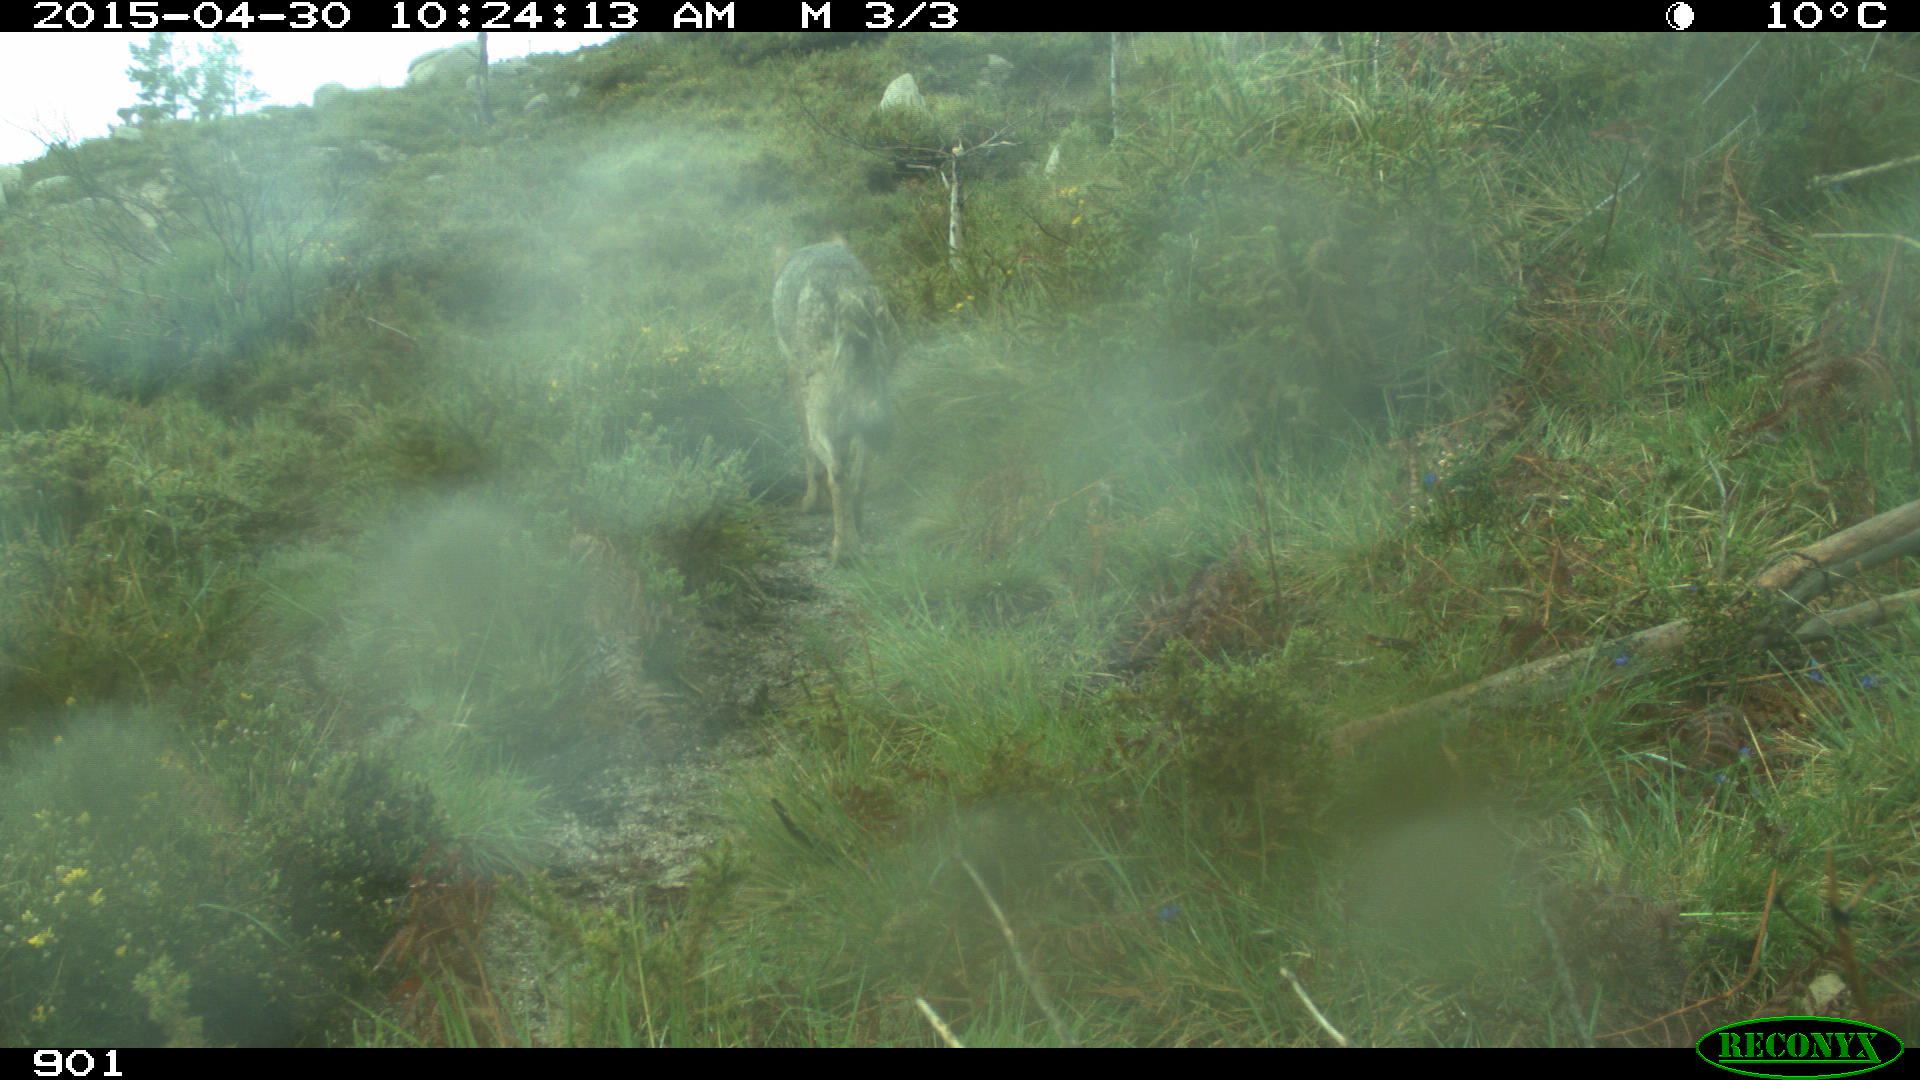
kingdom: Animalia
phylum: Chordata
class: Mammalia
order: Carnivora
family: Canidae
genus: Canis
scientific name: Canis lupus
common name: Gray wolf
